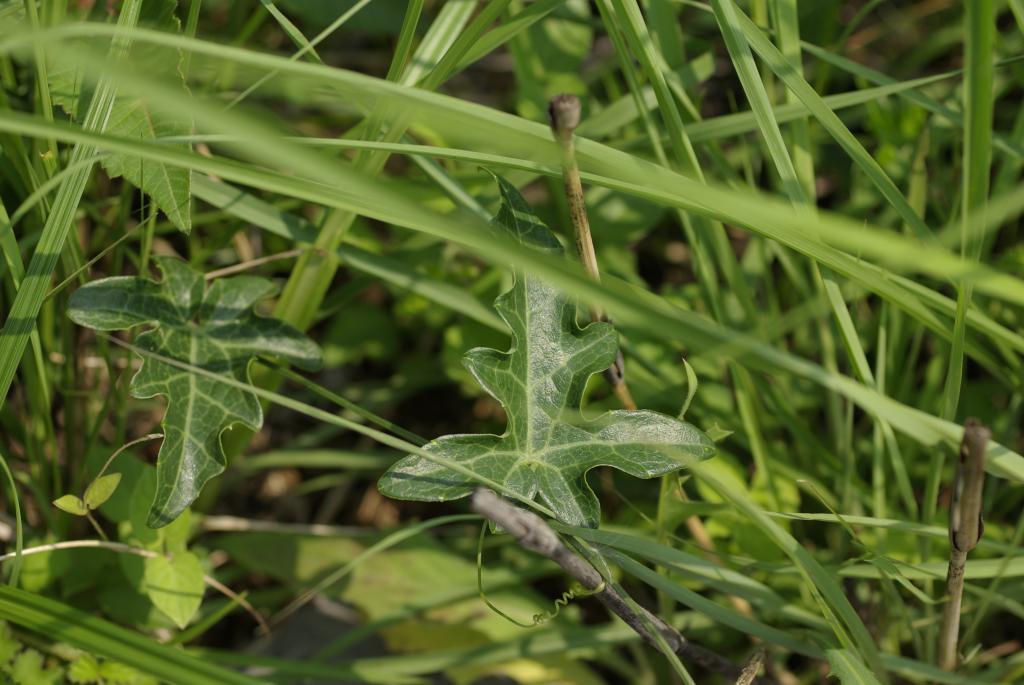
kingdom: Plantae
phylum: Tracheophyta
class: Magnoliopsida
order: Cucurbitales
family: Cucurbitaceae
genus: Solena
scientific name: Solena amplexicaulis
